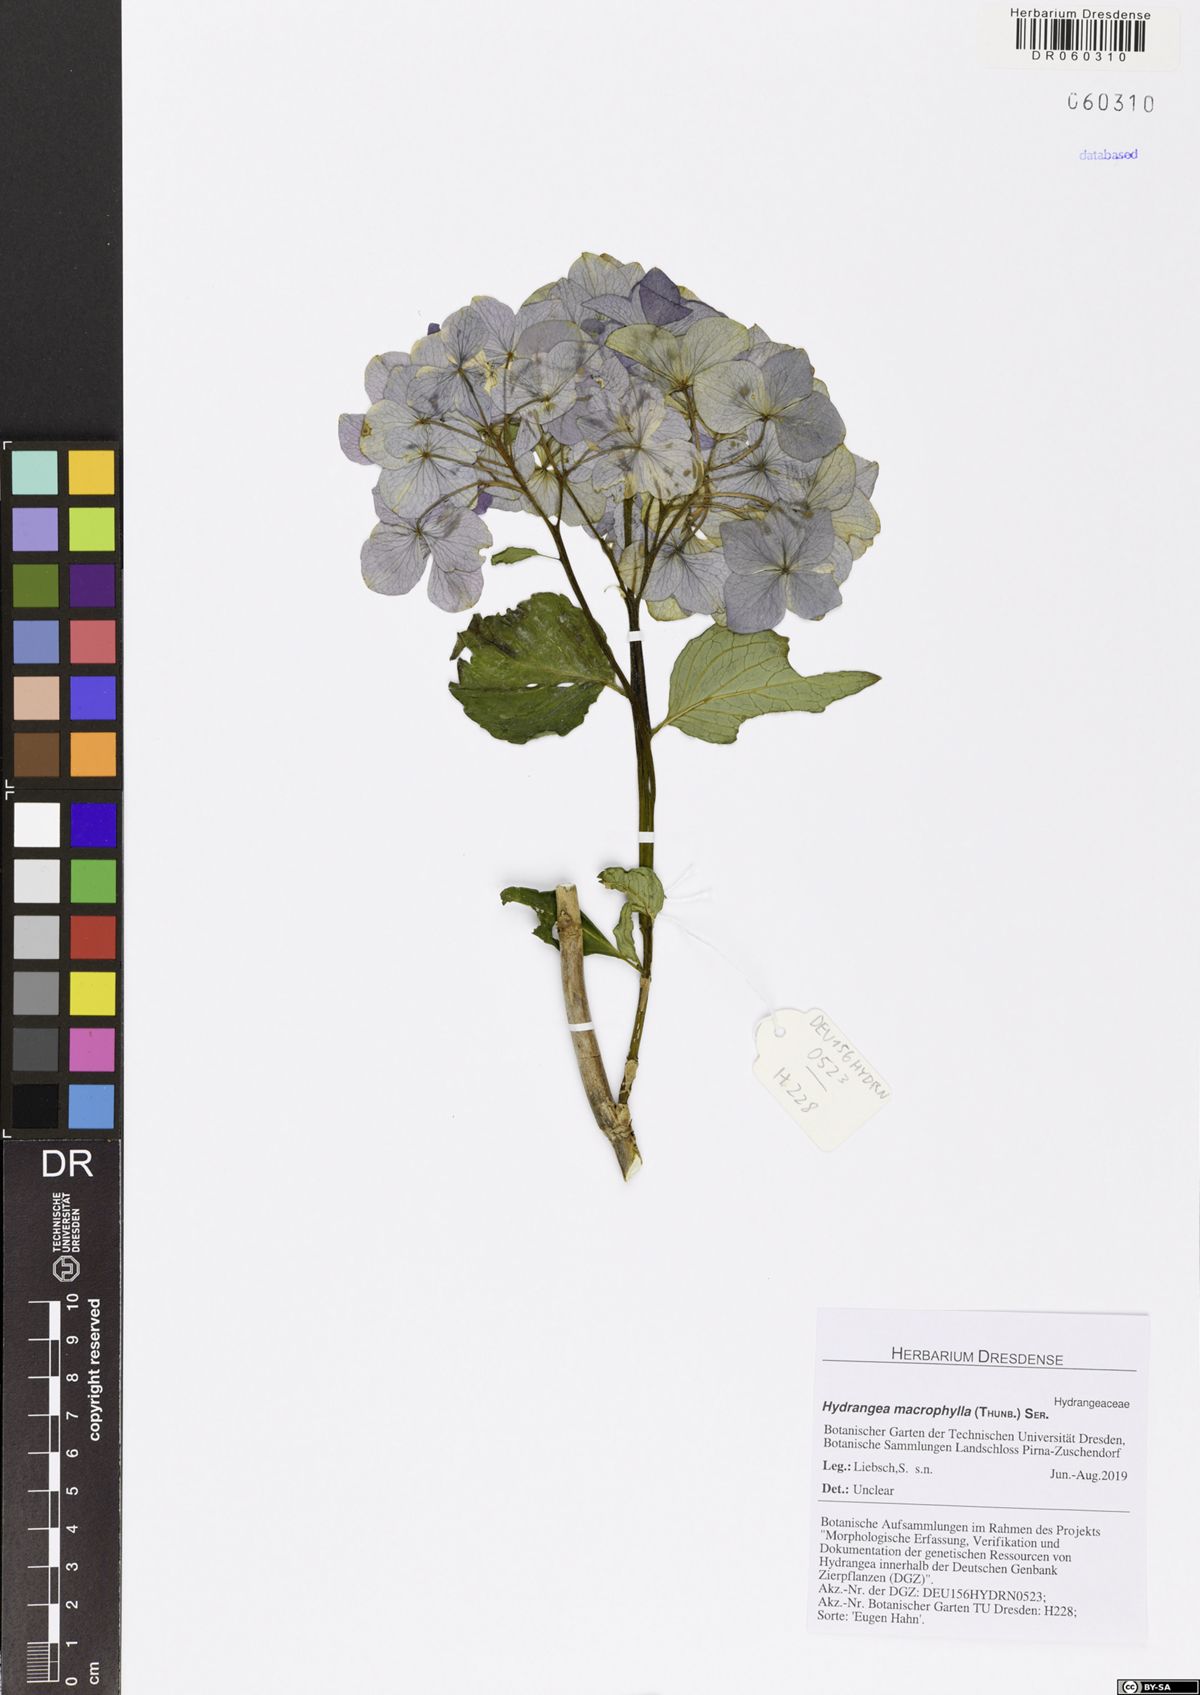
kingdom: Plantae
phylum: Tracheophyta
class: Magnoliopsida
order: Cornales
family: Hydrangeaceae
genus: Hydrangea
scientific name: Hydrangea macrophylla
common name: Hydrangea
